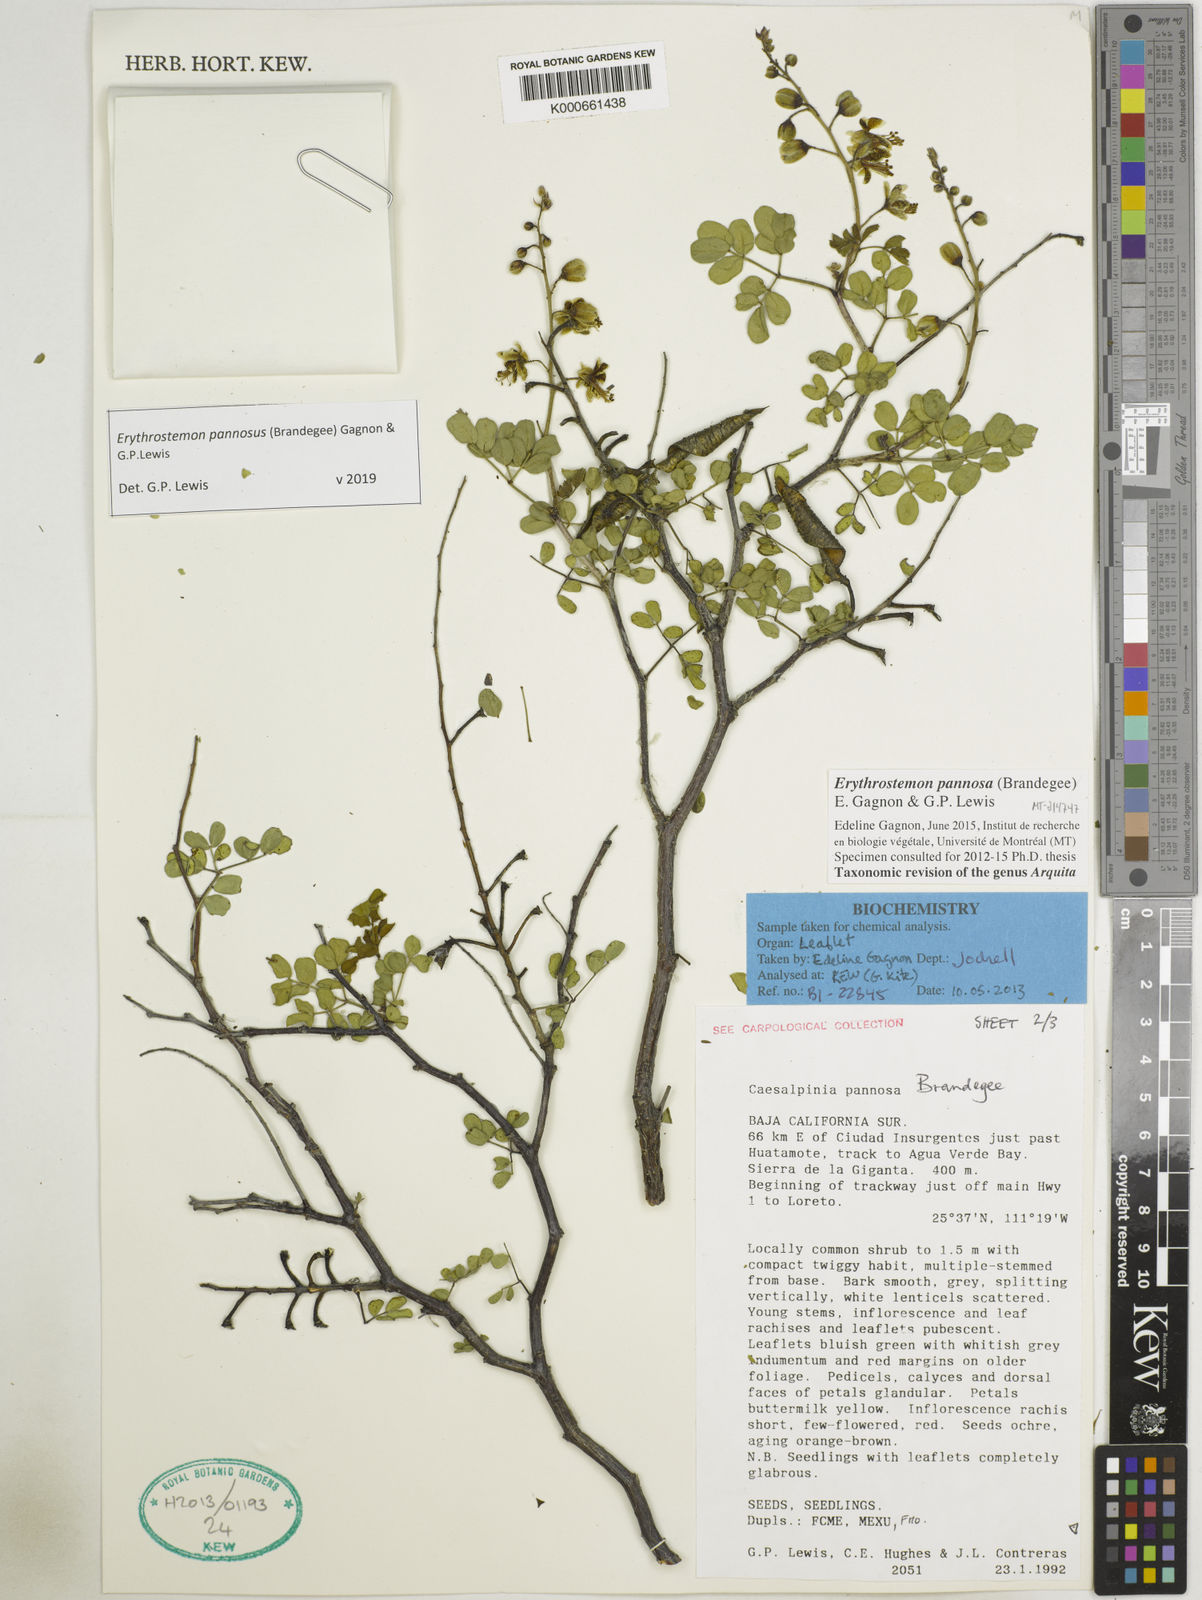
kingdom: Plantae
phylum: Tracheophyta
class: Magnoliopsida
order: Fabales
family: Fabaceae
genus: Erythrostemon
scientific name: Erythrostemon pannosus
